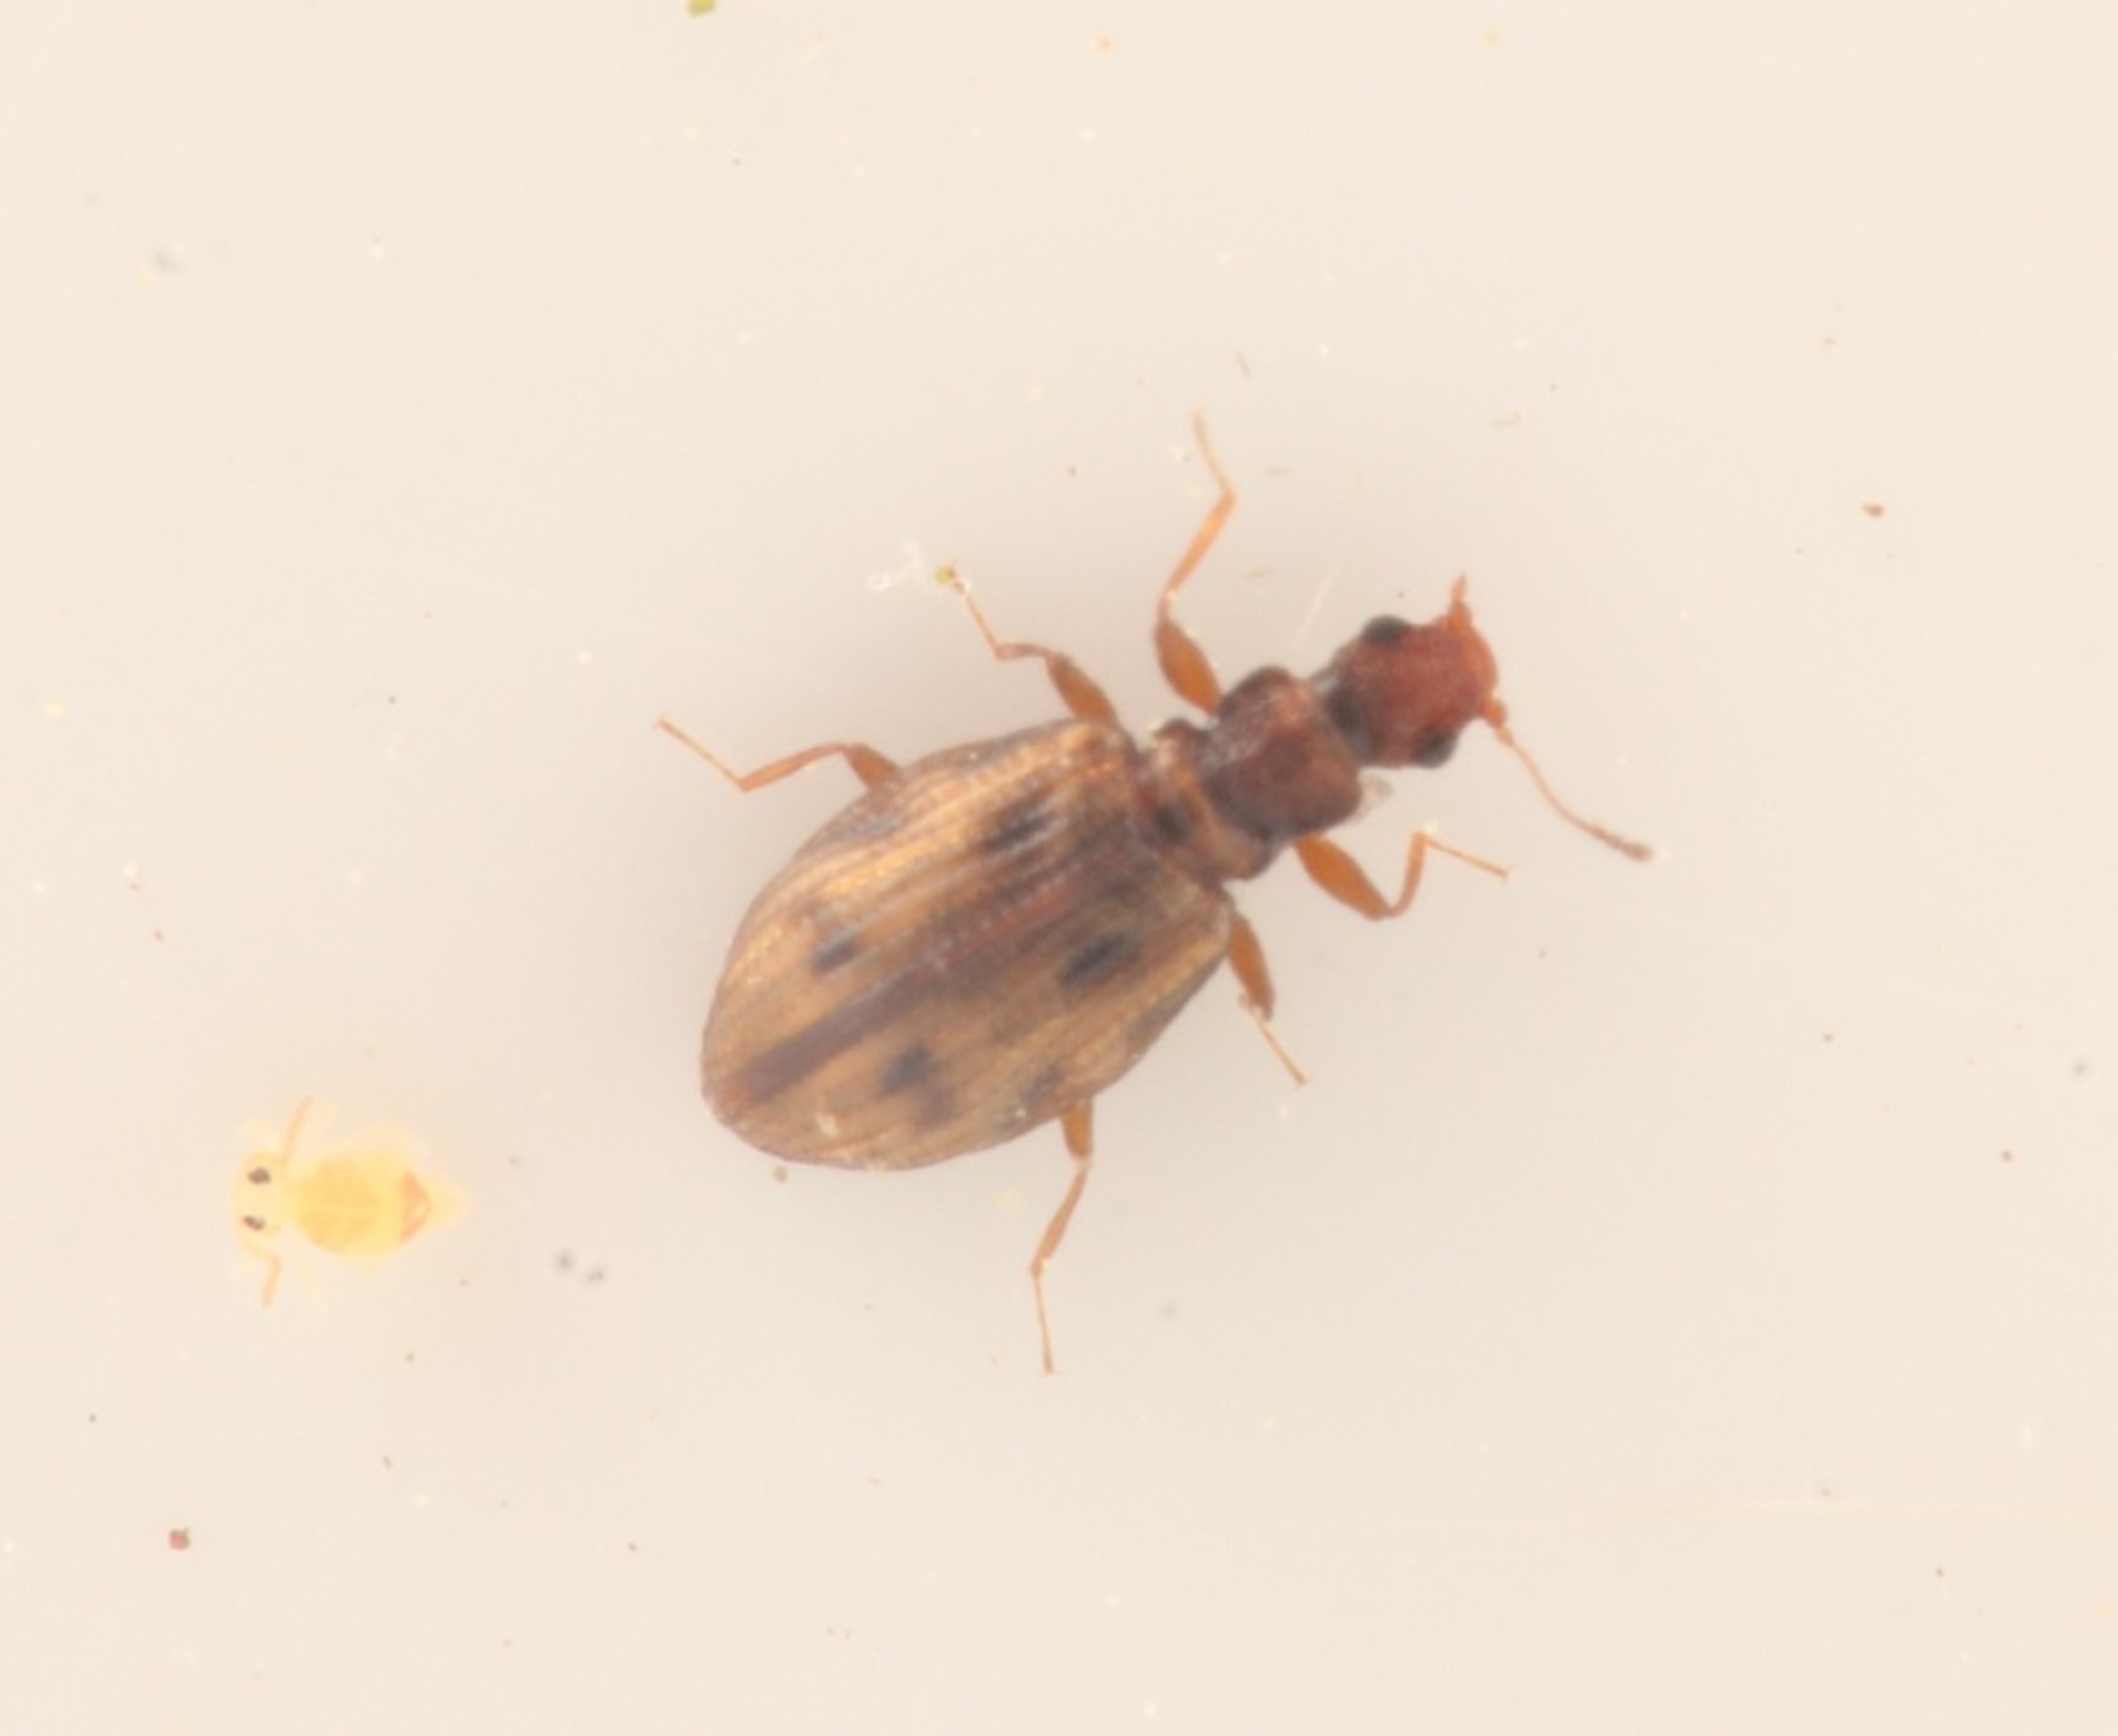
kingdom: Animalia
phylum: Arthropoda
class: Insecta
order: Coleoptera
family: Latridiidae
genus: Cartodere
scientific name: Cartodere bifasciata
